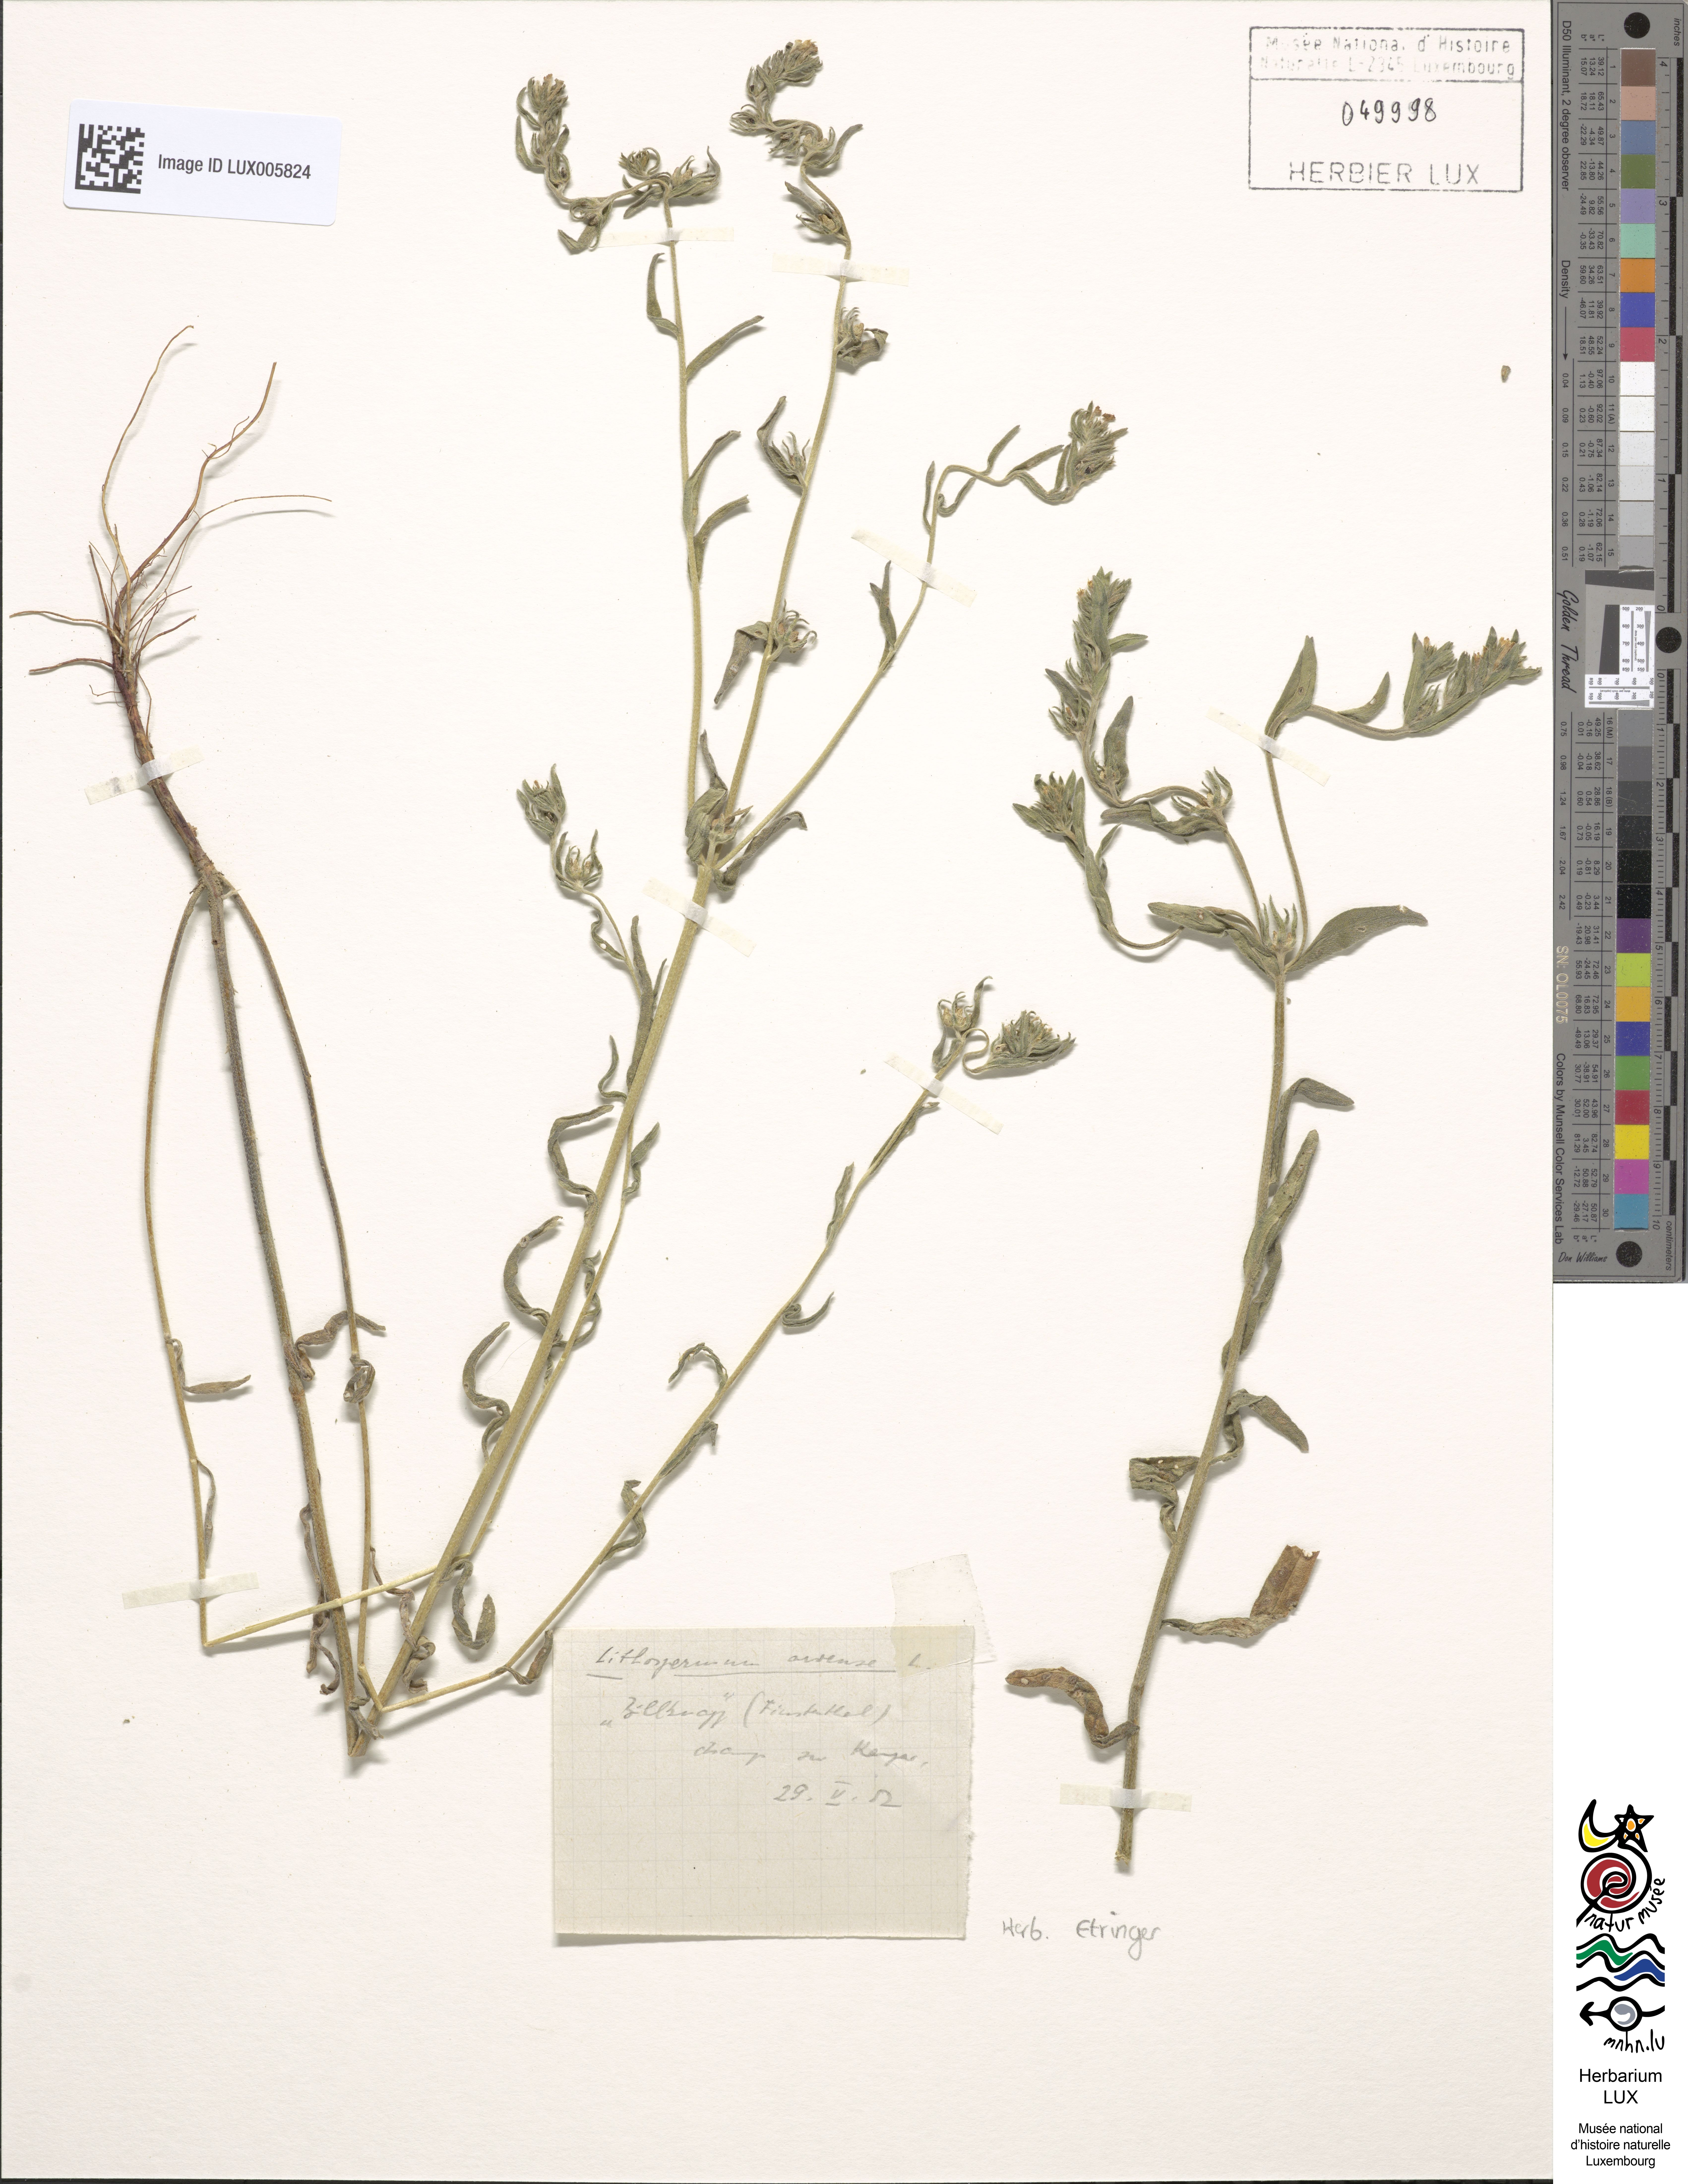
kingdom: Plantae
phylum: Tracheophyta
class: Magnoliopsida
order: Boraginales
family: Boraginaceae
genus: Buglossoides
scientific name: Buglossoides arvensis
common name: Corn gromwell
